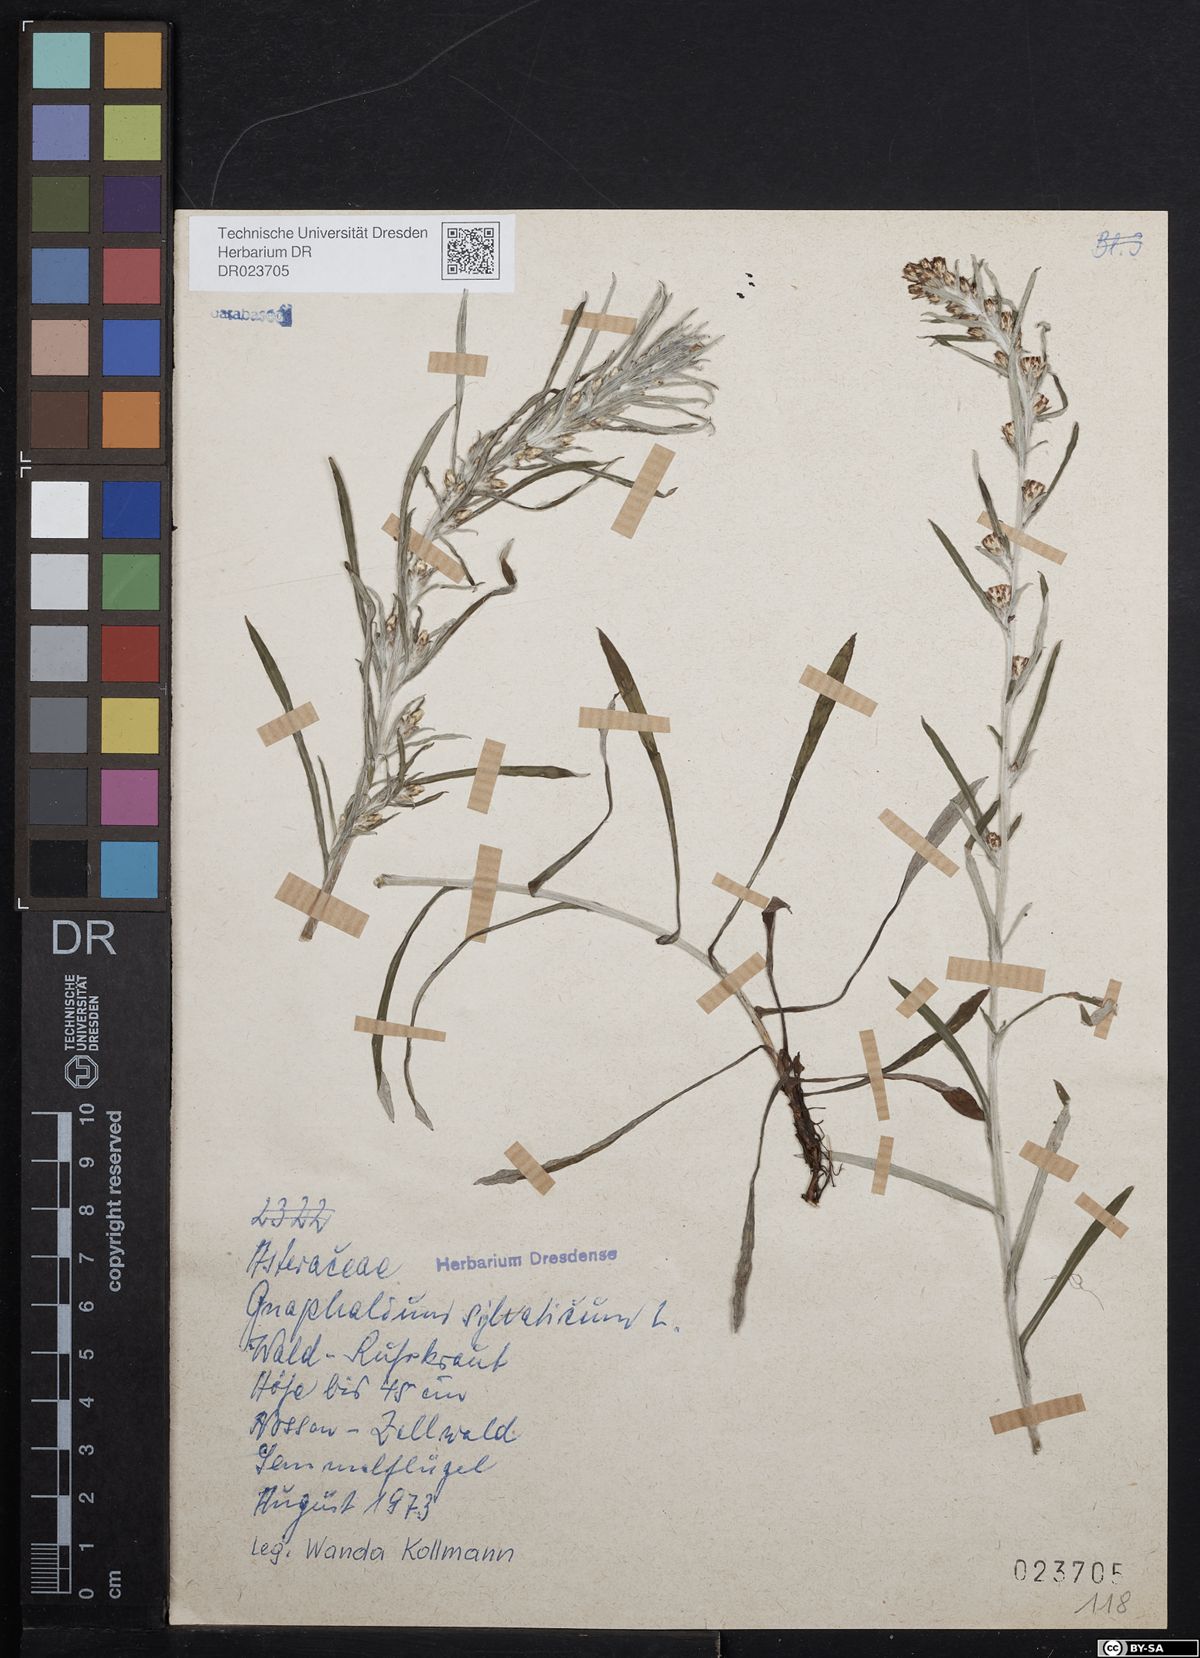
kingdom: Plantae
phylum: Tracheophyta
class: Magnoliopsida
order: Asterales
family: Asteraceae
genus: Omalotheca
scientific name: Omalotheca sylvatica
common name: Heath cudweed
